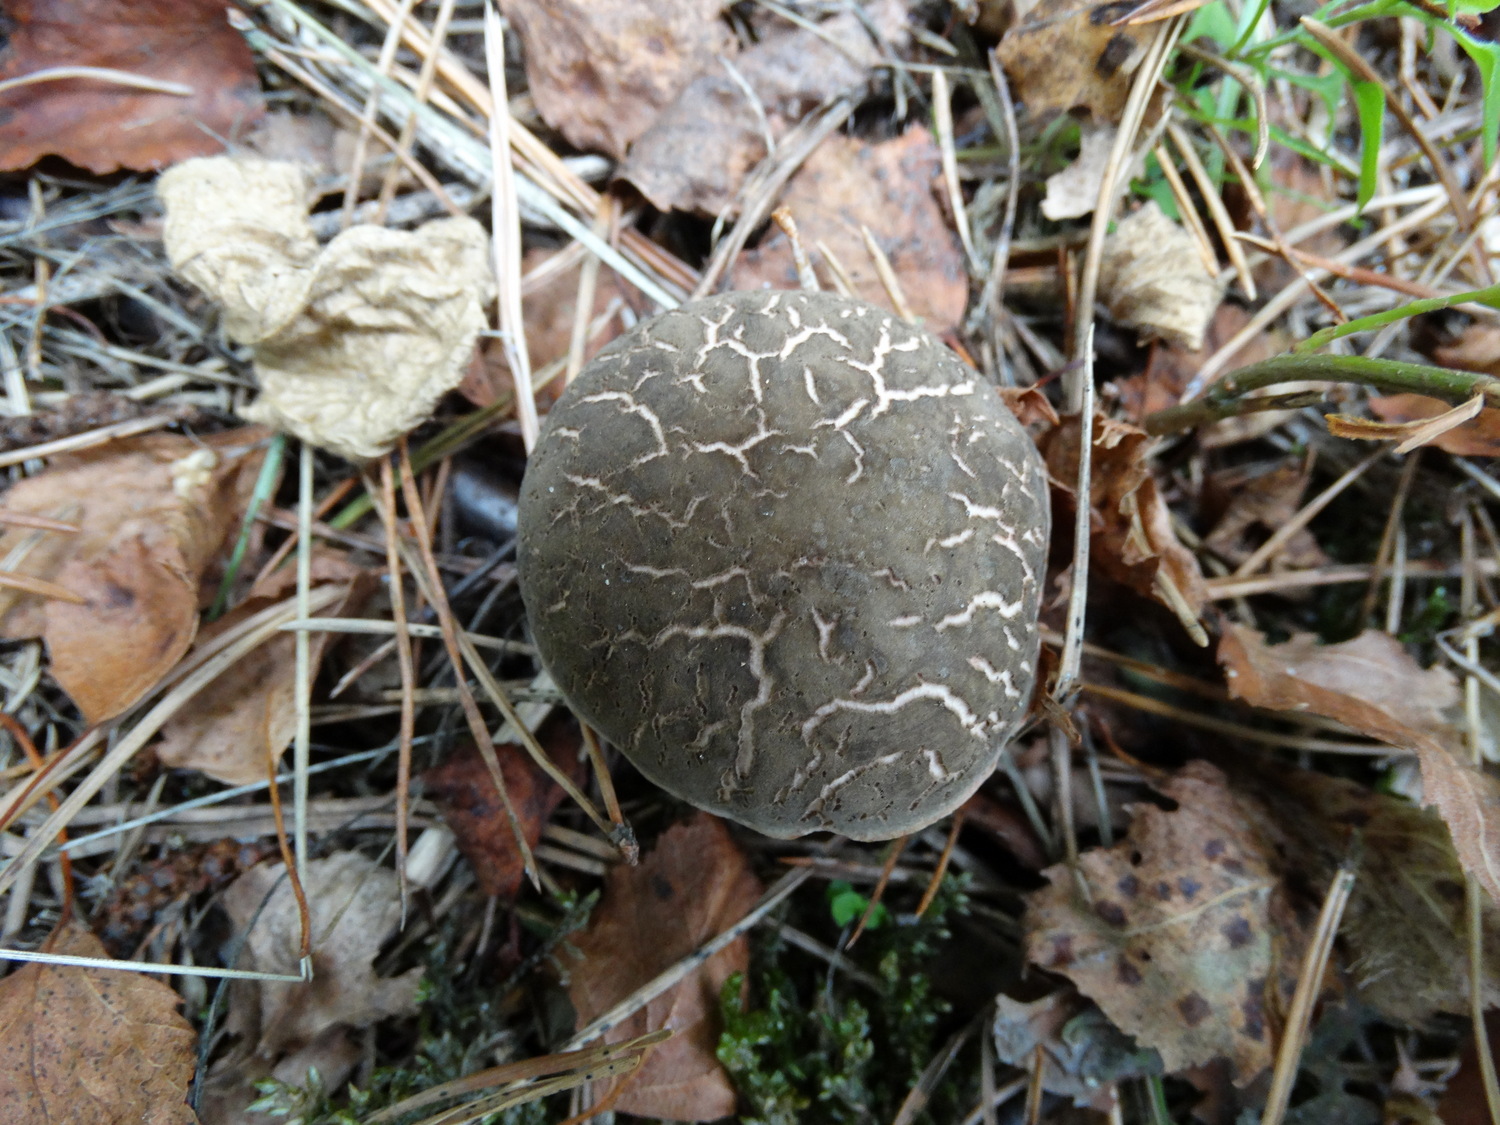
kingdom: Fungi
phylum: Basidiomycota
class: Agaricomycetes
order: Boletales
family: Boletaceae
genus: Xerocomellus
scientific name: Xerocomellus cisalpinus
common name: finsprukken rørhat
